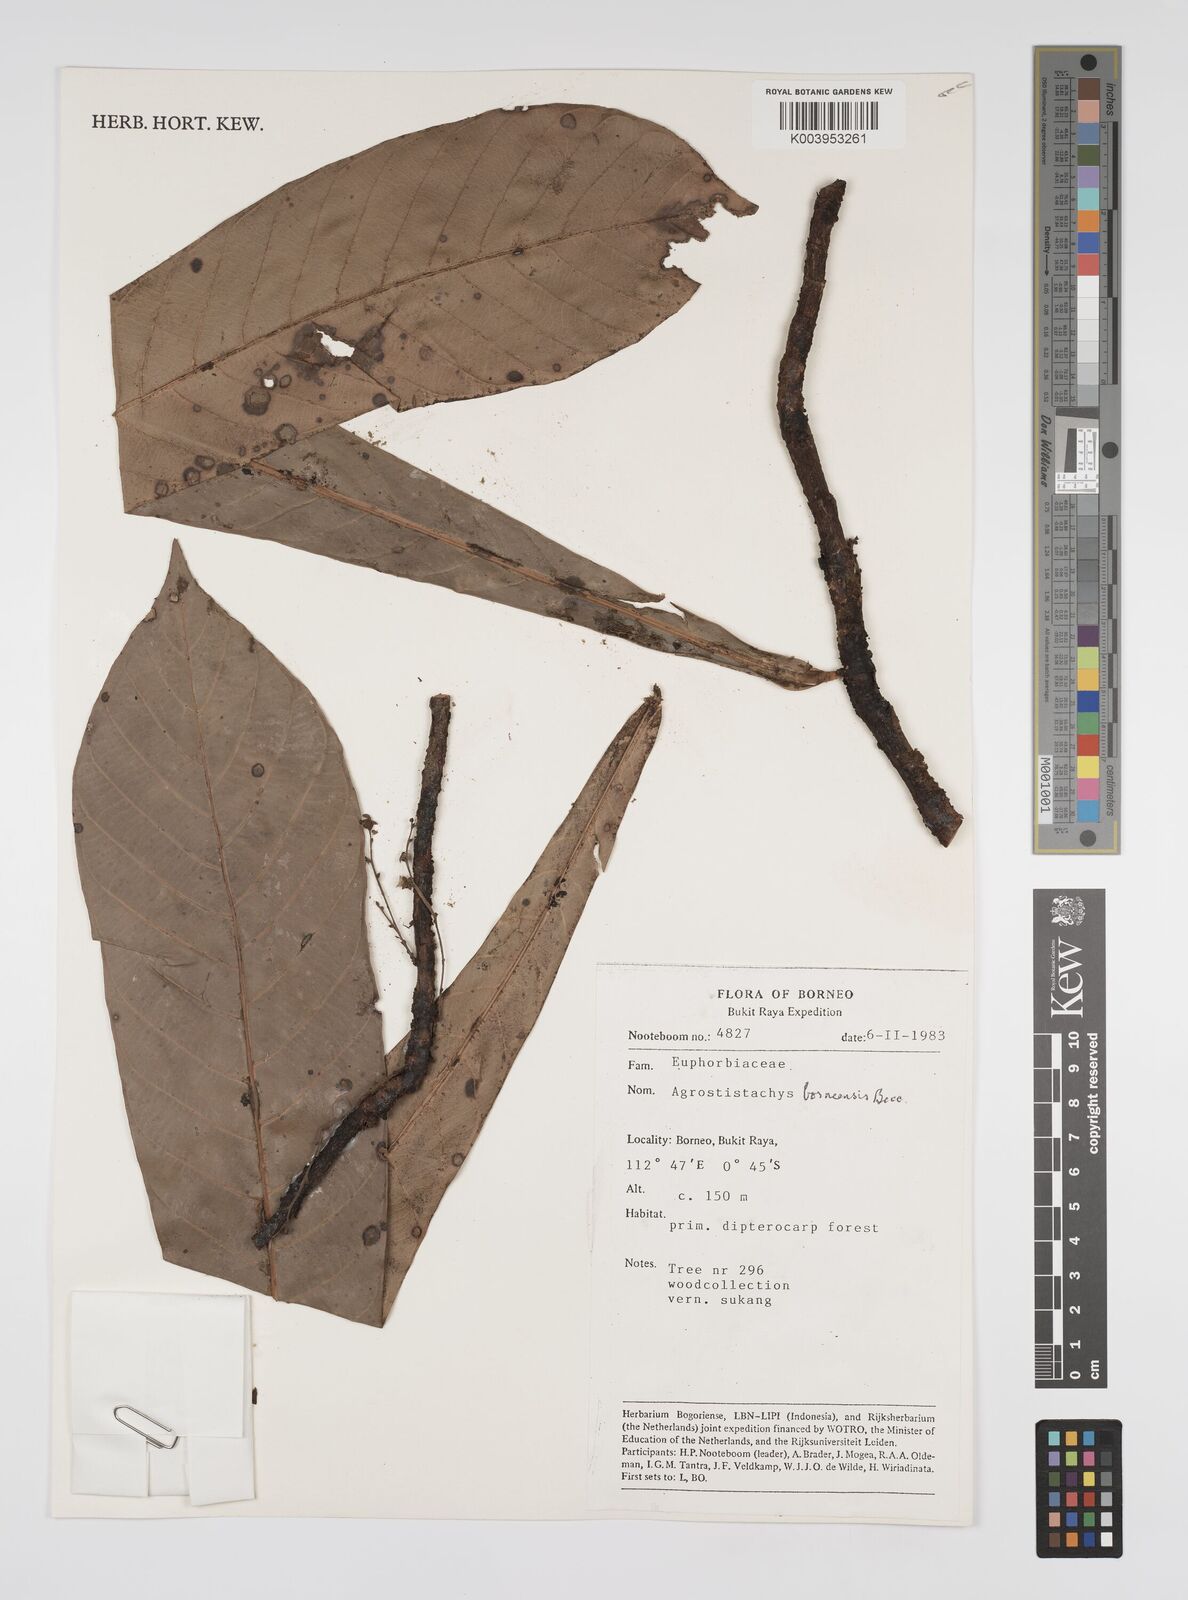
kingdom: Plantae
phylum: Tracheophyta
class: Magnoliopsida
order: Malpighiales
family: Euphorbiaceae
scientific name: Euphorbiaceae
